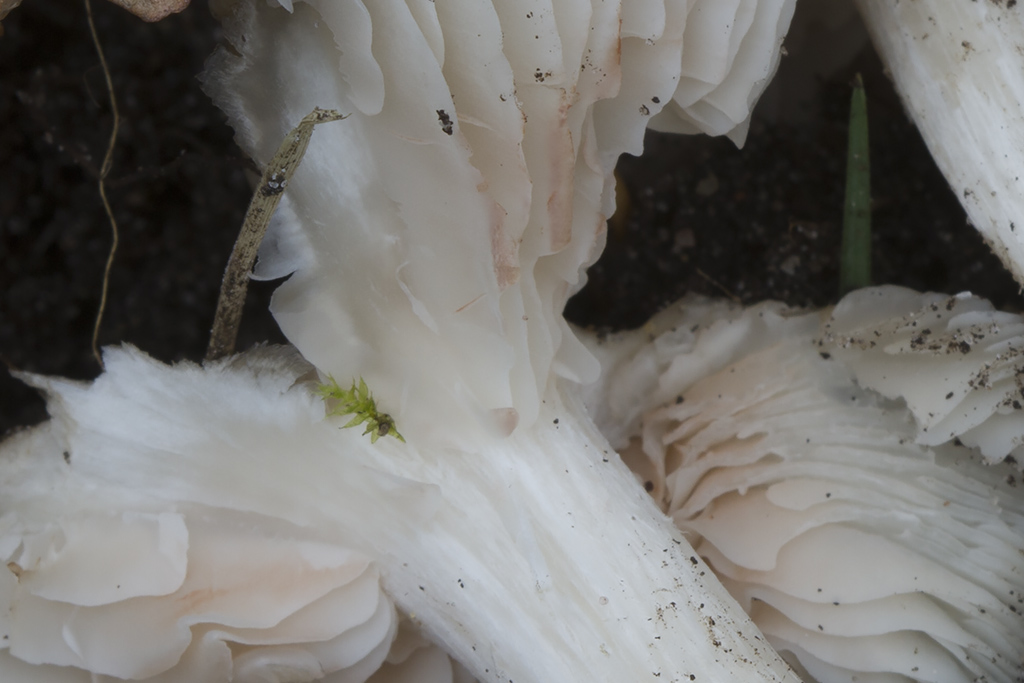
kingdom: Fungi
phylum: Basidiomycota
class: Agaricomycetes
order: Agaricales
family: Entolomataceae
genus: Entoloma
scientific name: Entoloma sepium
